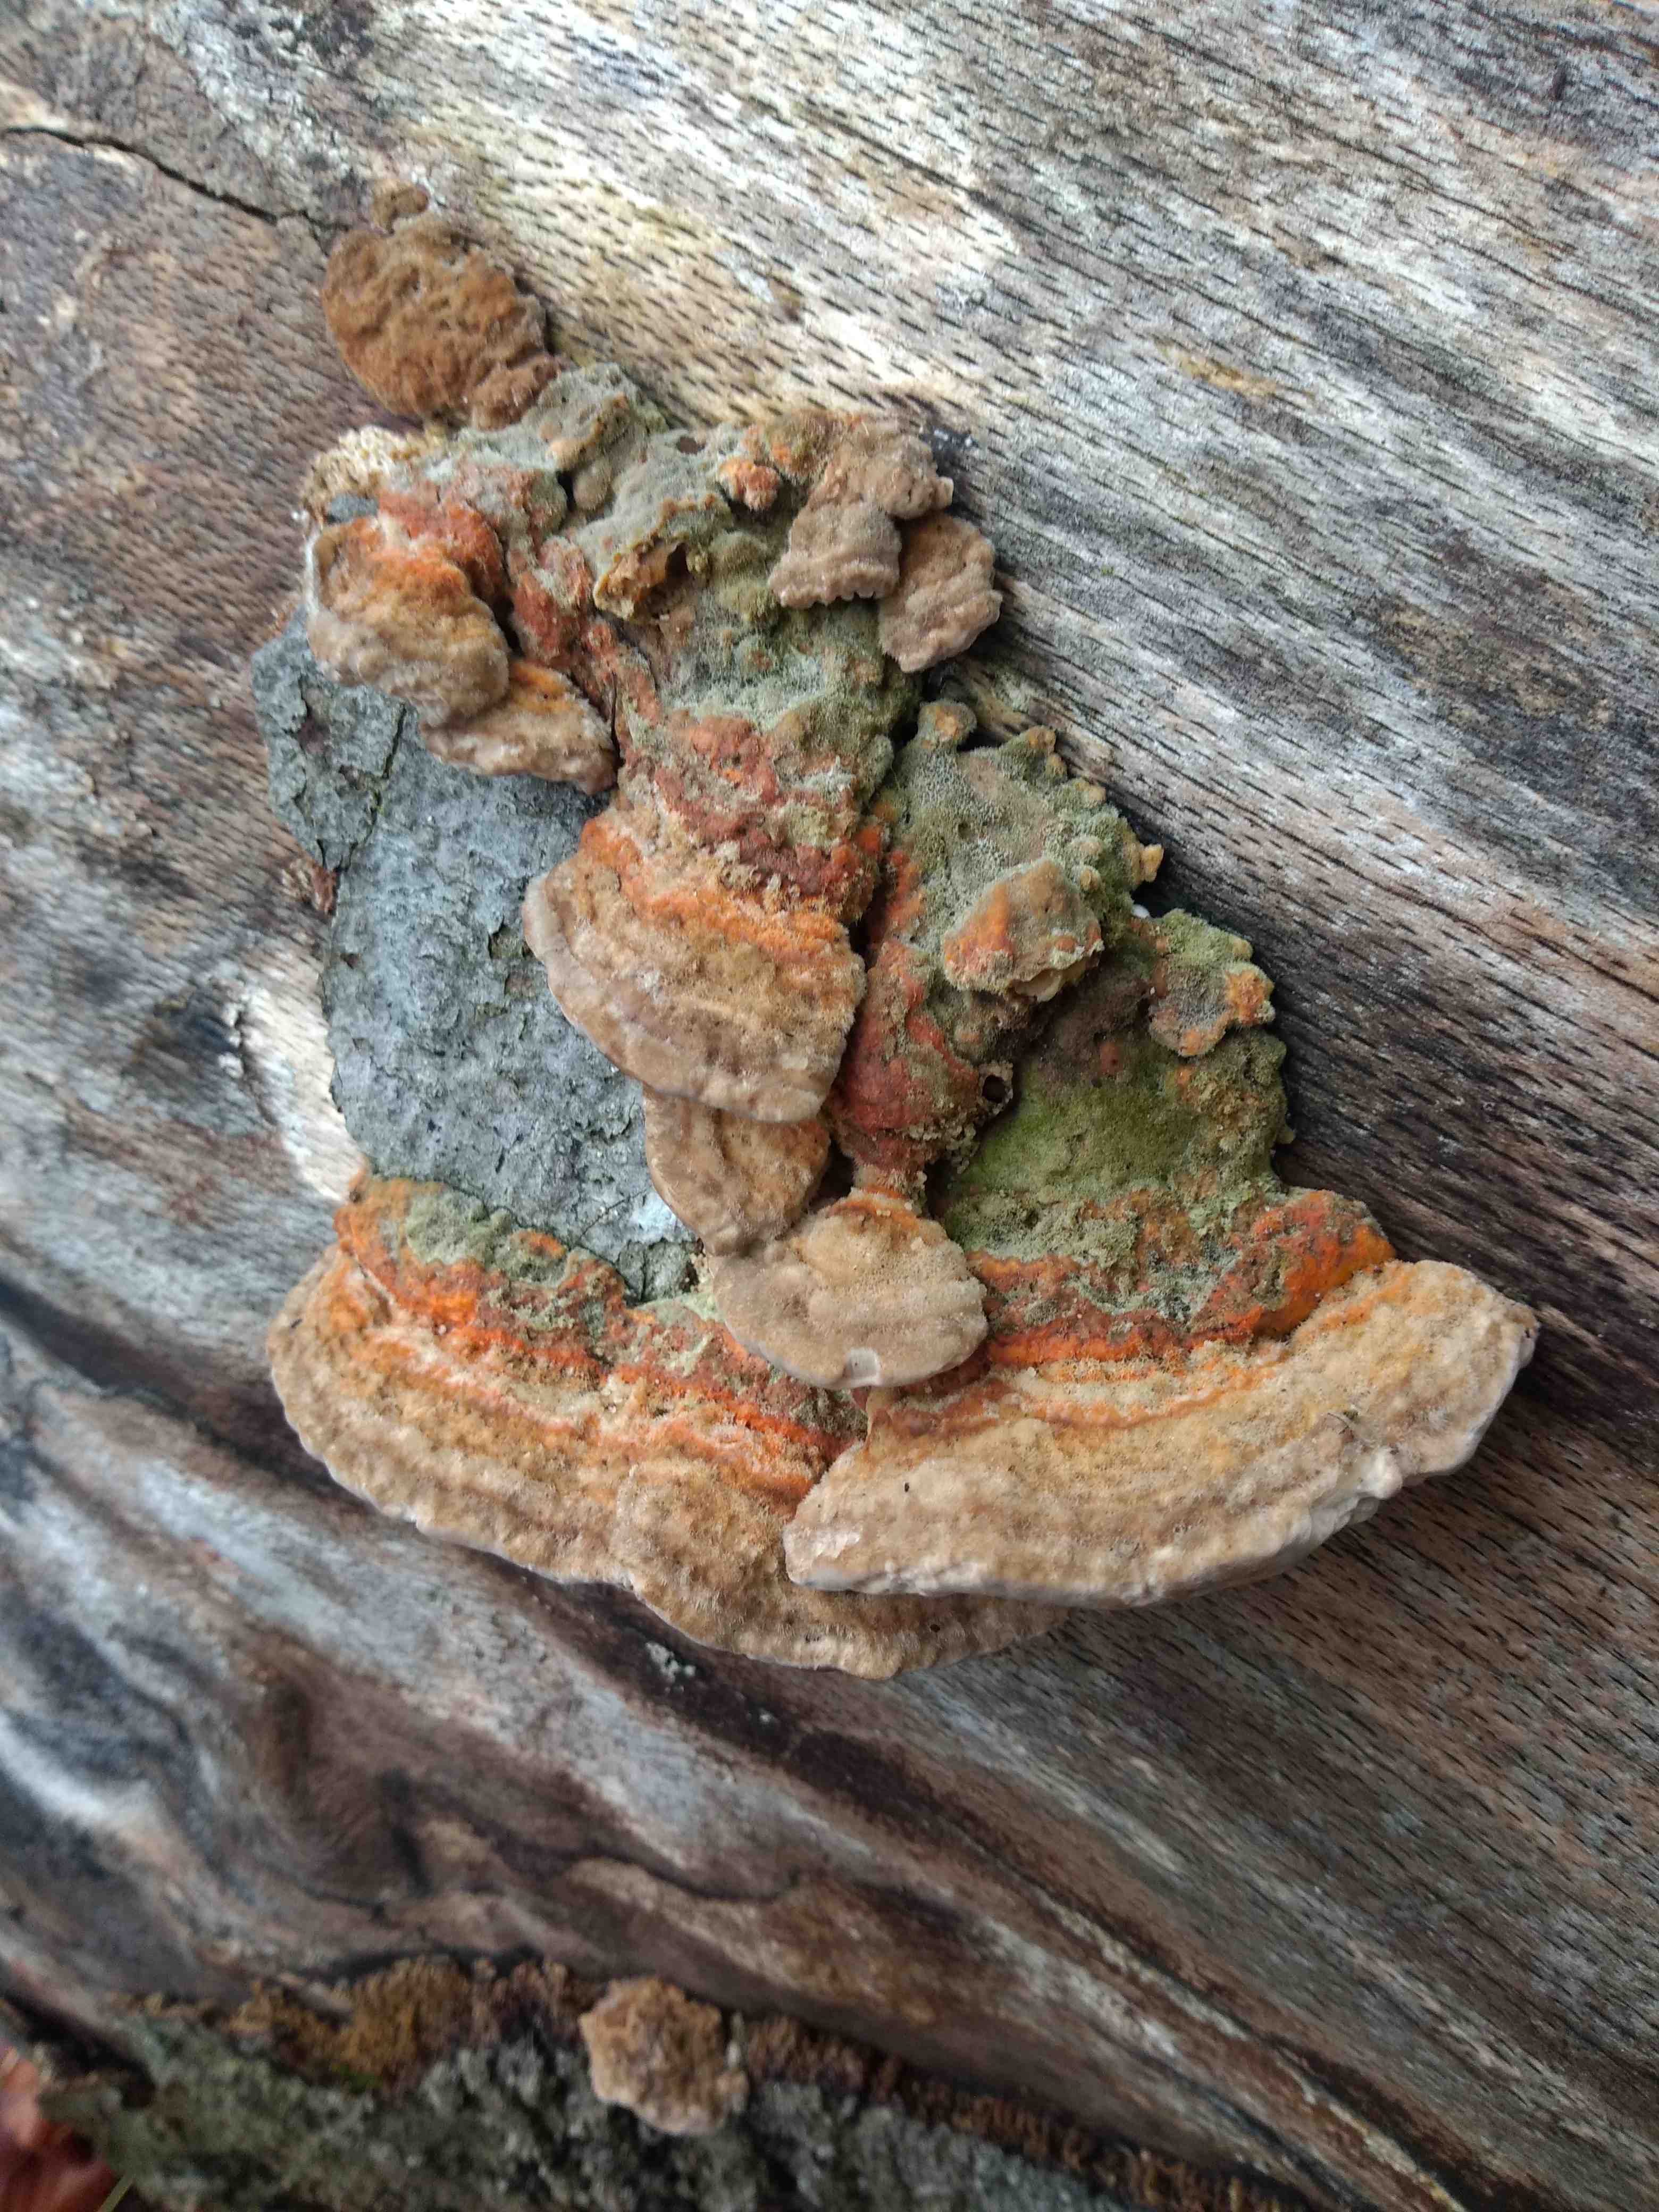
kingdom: Fungi
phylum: Basidiomycota
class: Agaricomycetes
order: Polyporales
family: Fomitopsidaceae
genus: Daedalea
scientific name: Daedalea quercina
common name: ege-labyrintsvamp
